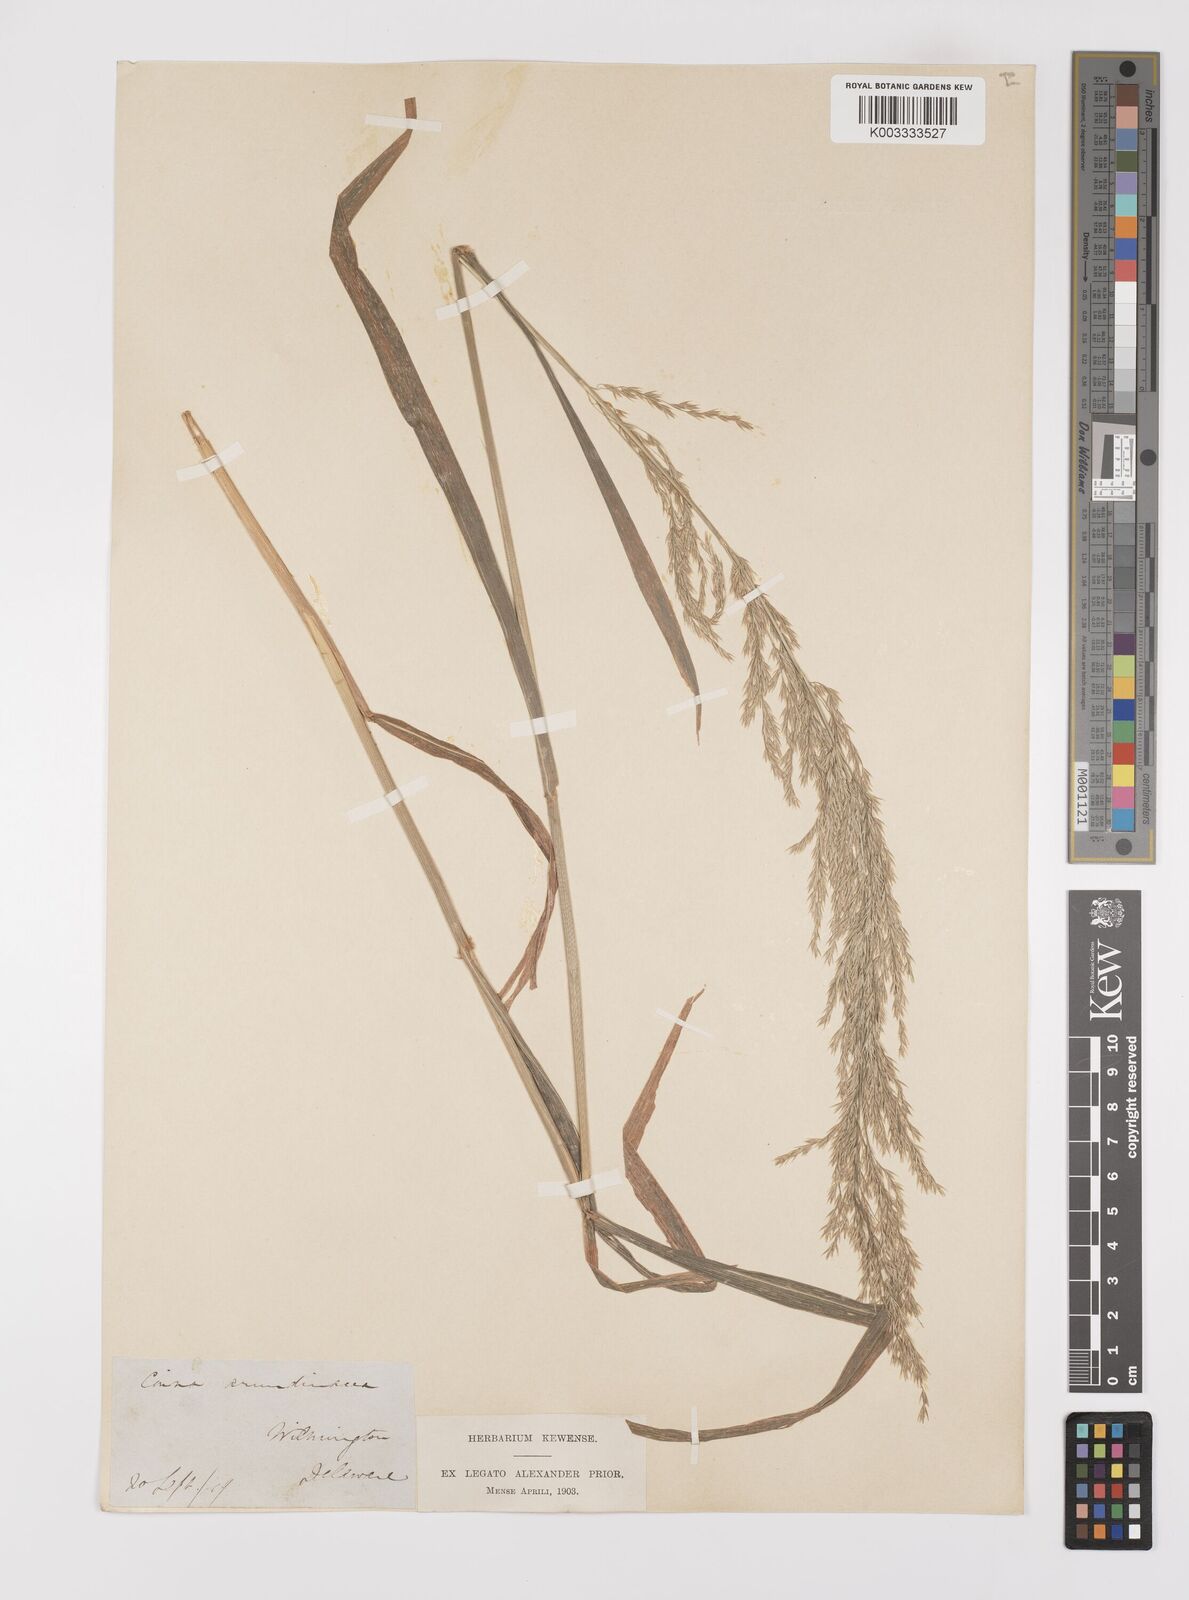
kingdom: Plantae
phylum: Tracheophyta
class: Liliopsida
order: Poales
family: Poaceae
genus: Cinna
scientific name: Cinna
